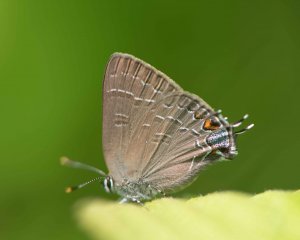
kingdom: Animalia
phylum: Arthropoda
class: Insecta
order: Lepidoptera
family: Lycaenidae
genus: Satyrium
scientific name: Satyrium calanus
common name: Banded Hairstreak
